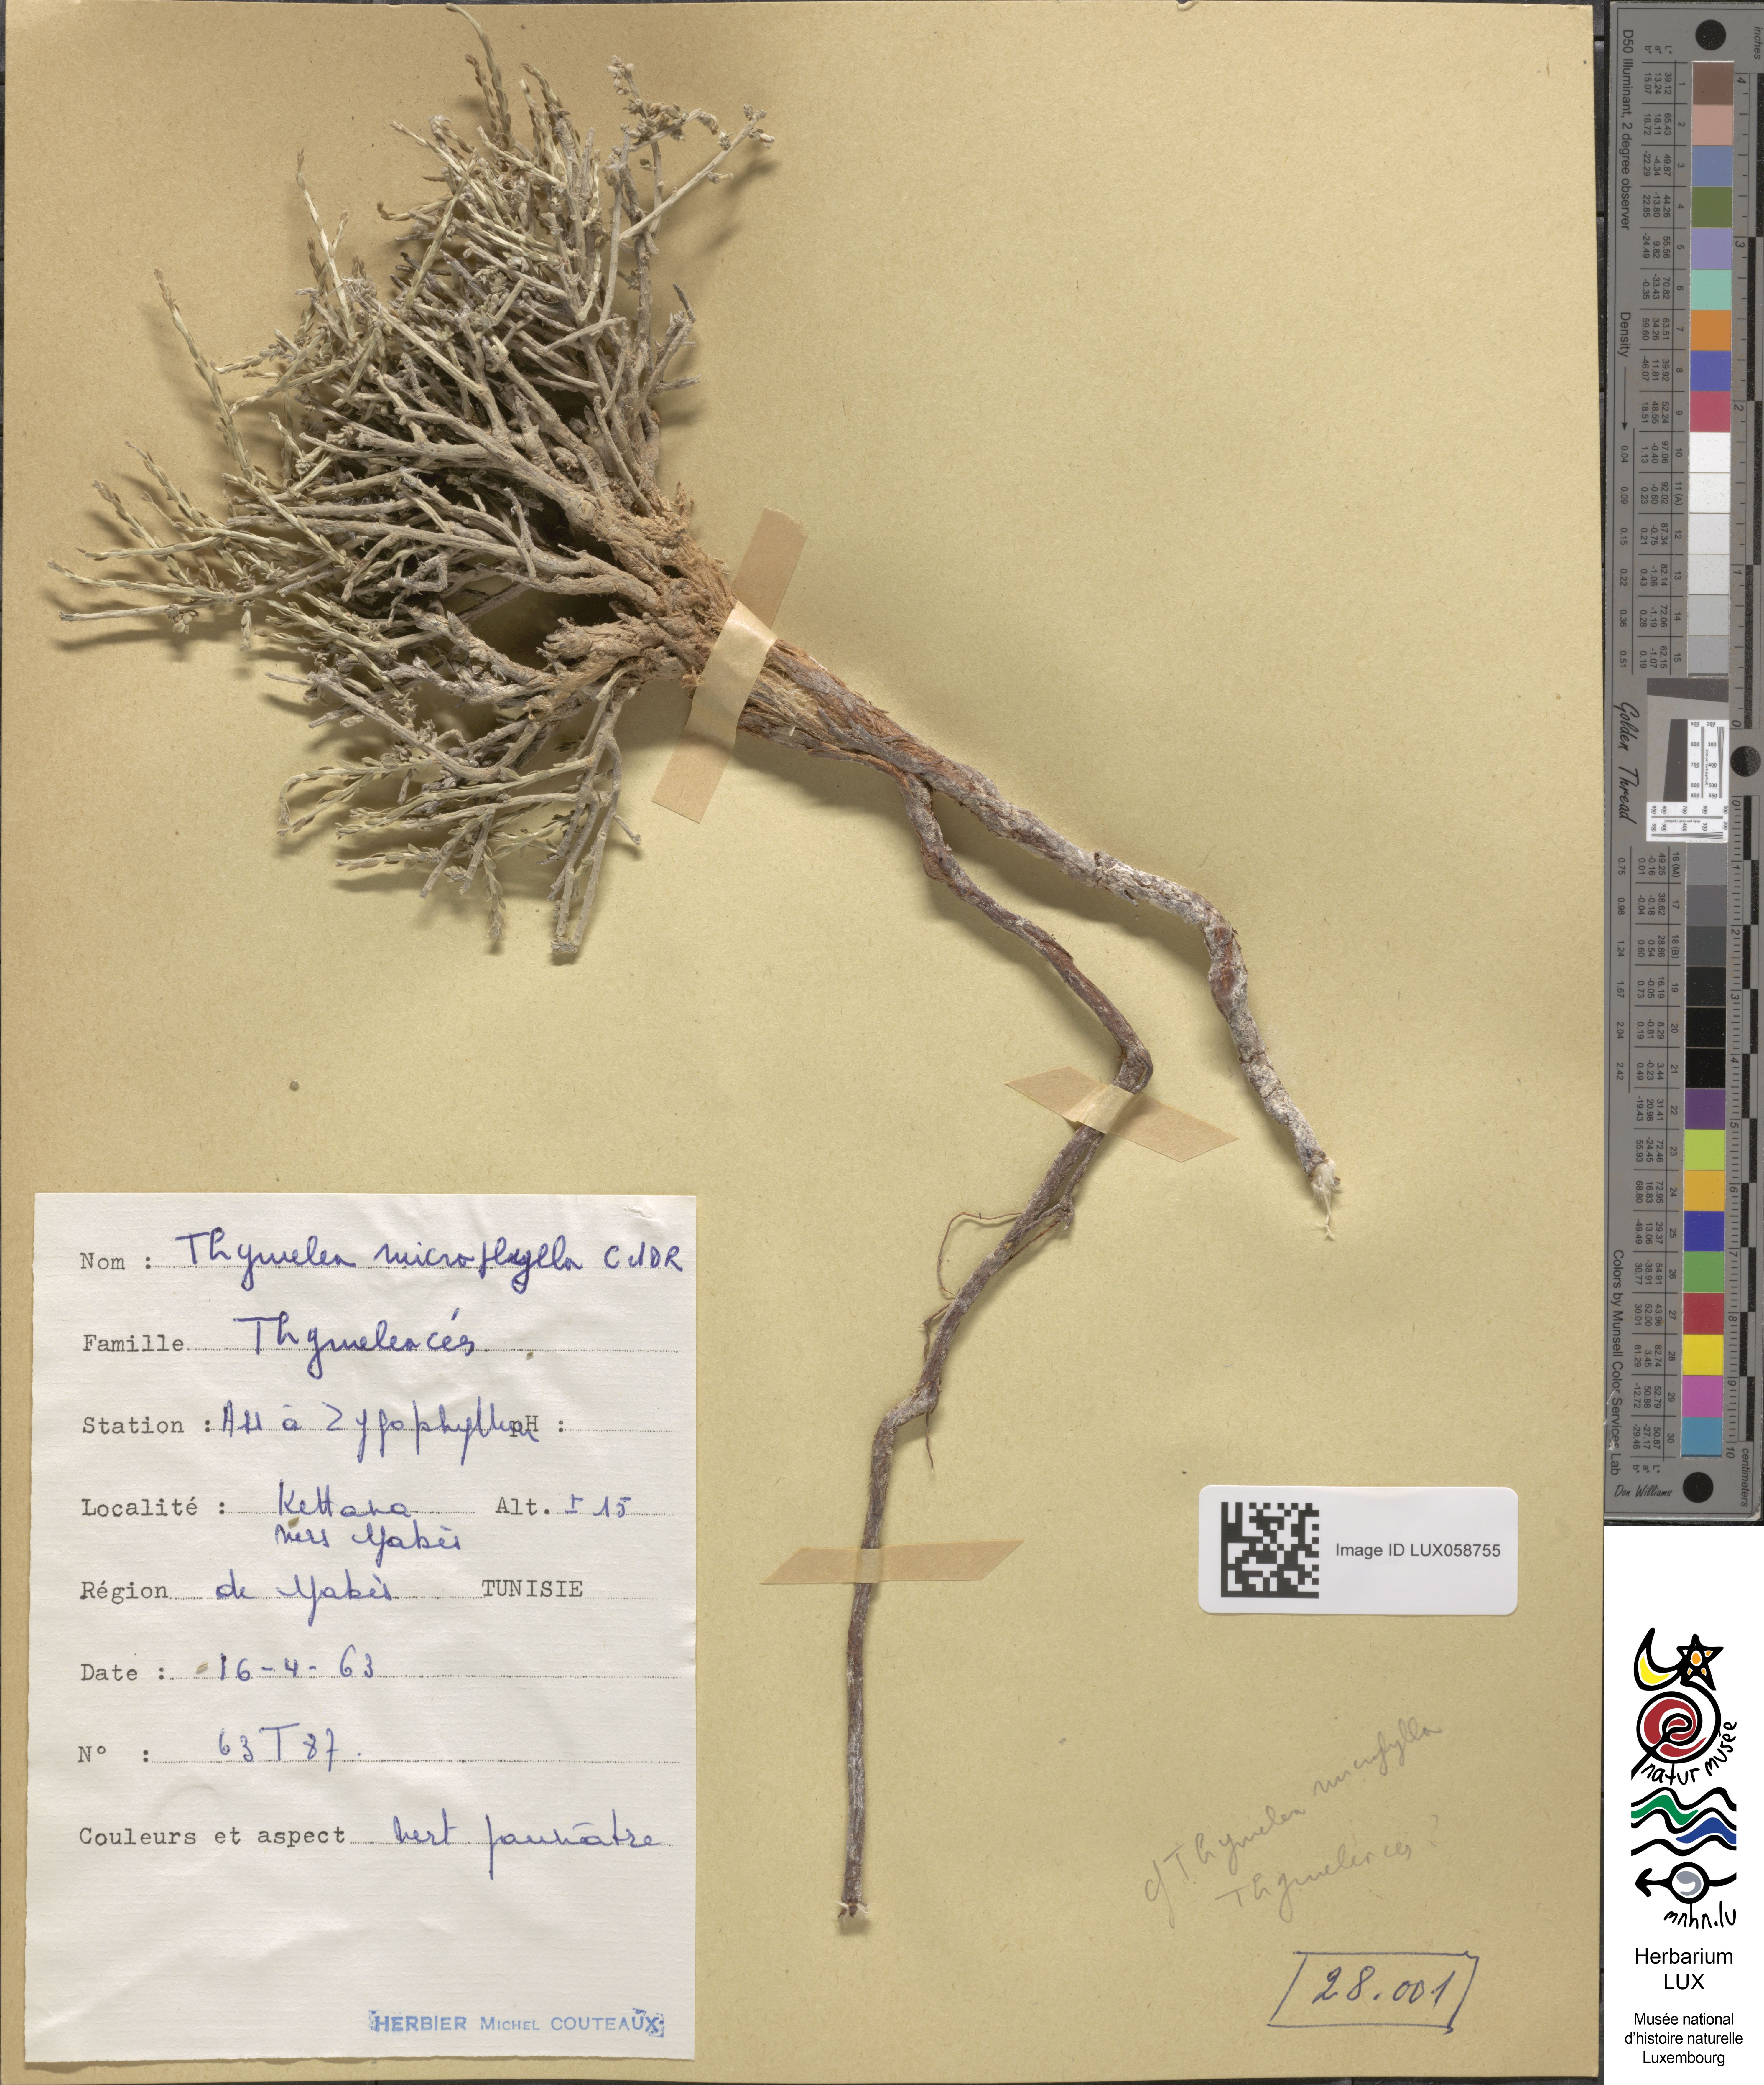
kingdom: Plantae
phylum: Tracheophyta
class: Magnoliopsida
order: Malvales
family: Thymelaeaceae
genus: Thymelaea
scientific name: Thymelaea microphylla
